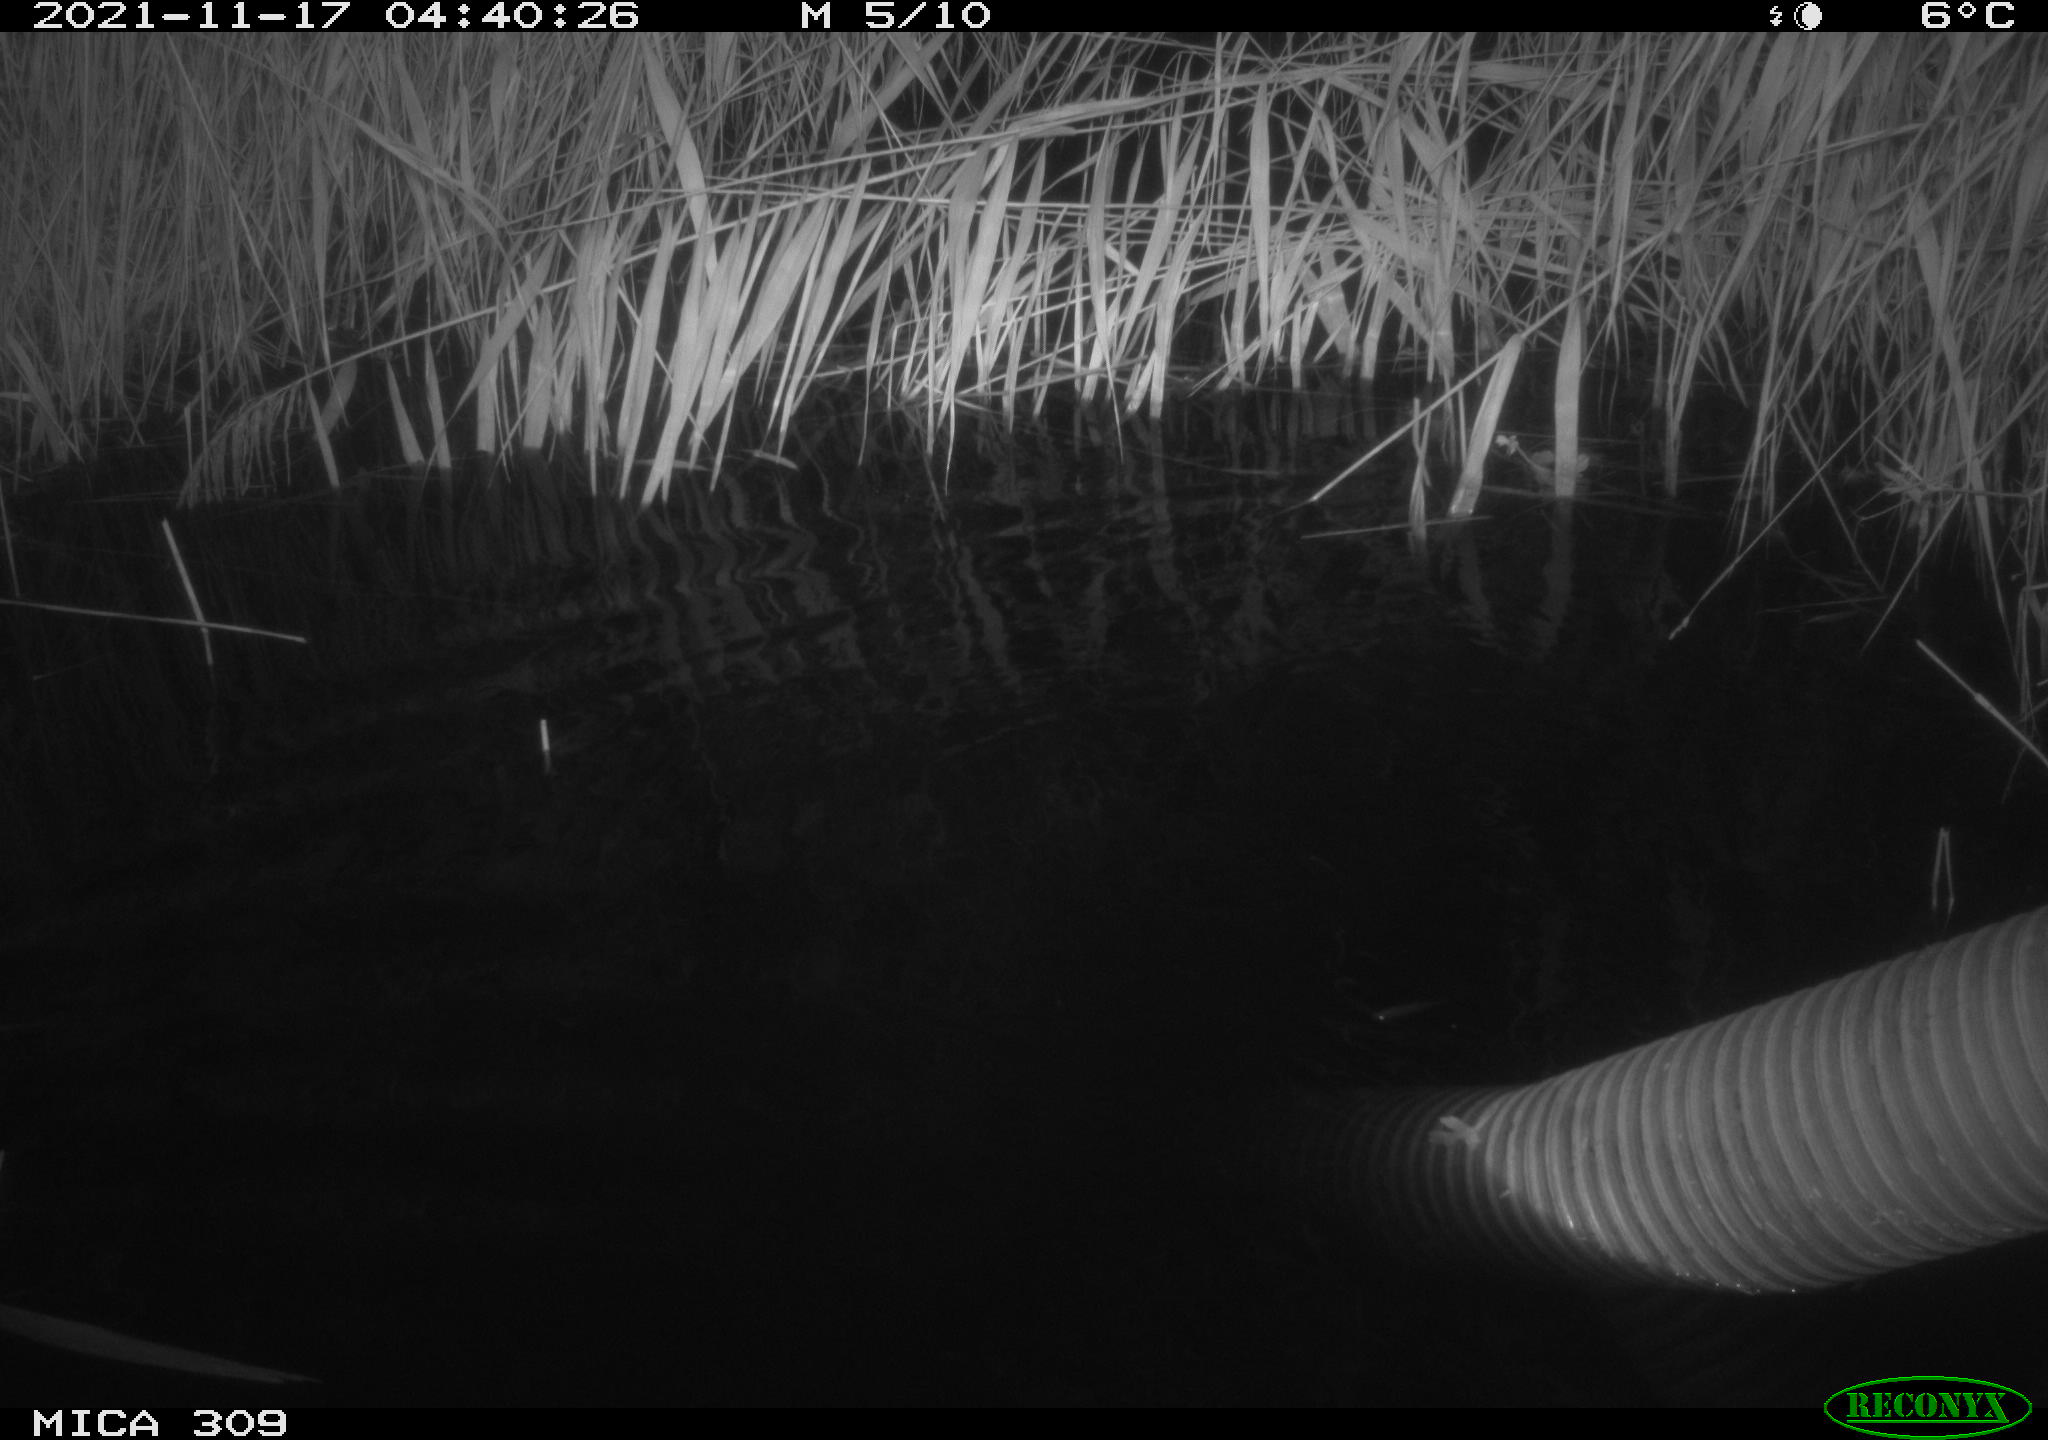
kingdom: Animalia
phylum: Chordata
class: Mammalia
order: Rodentia
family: Muridae
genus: Rattus
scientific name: Rattus norvegicus
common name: Brown rat
